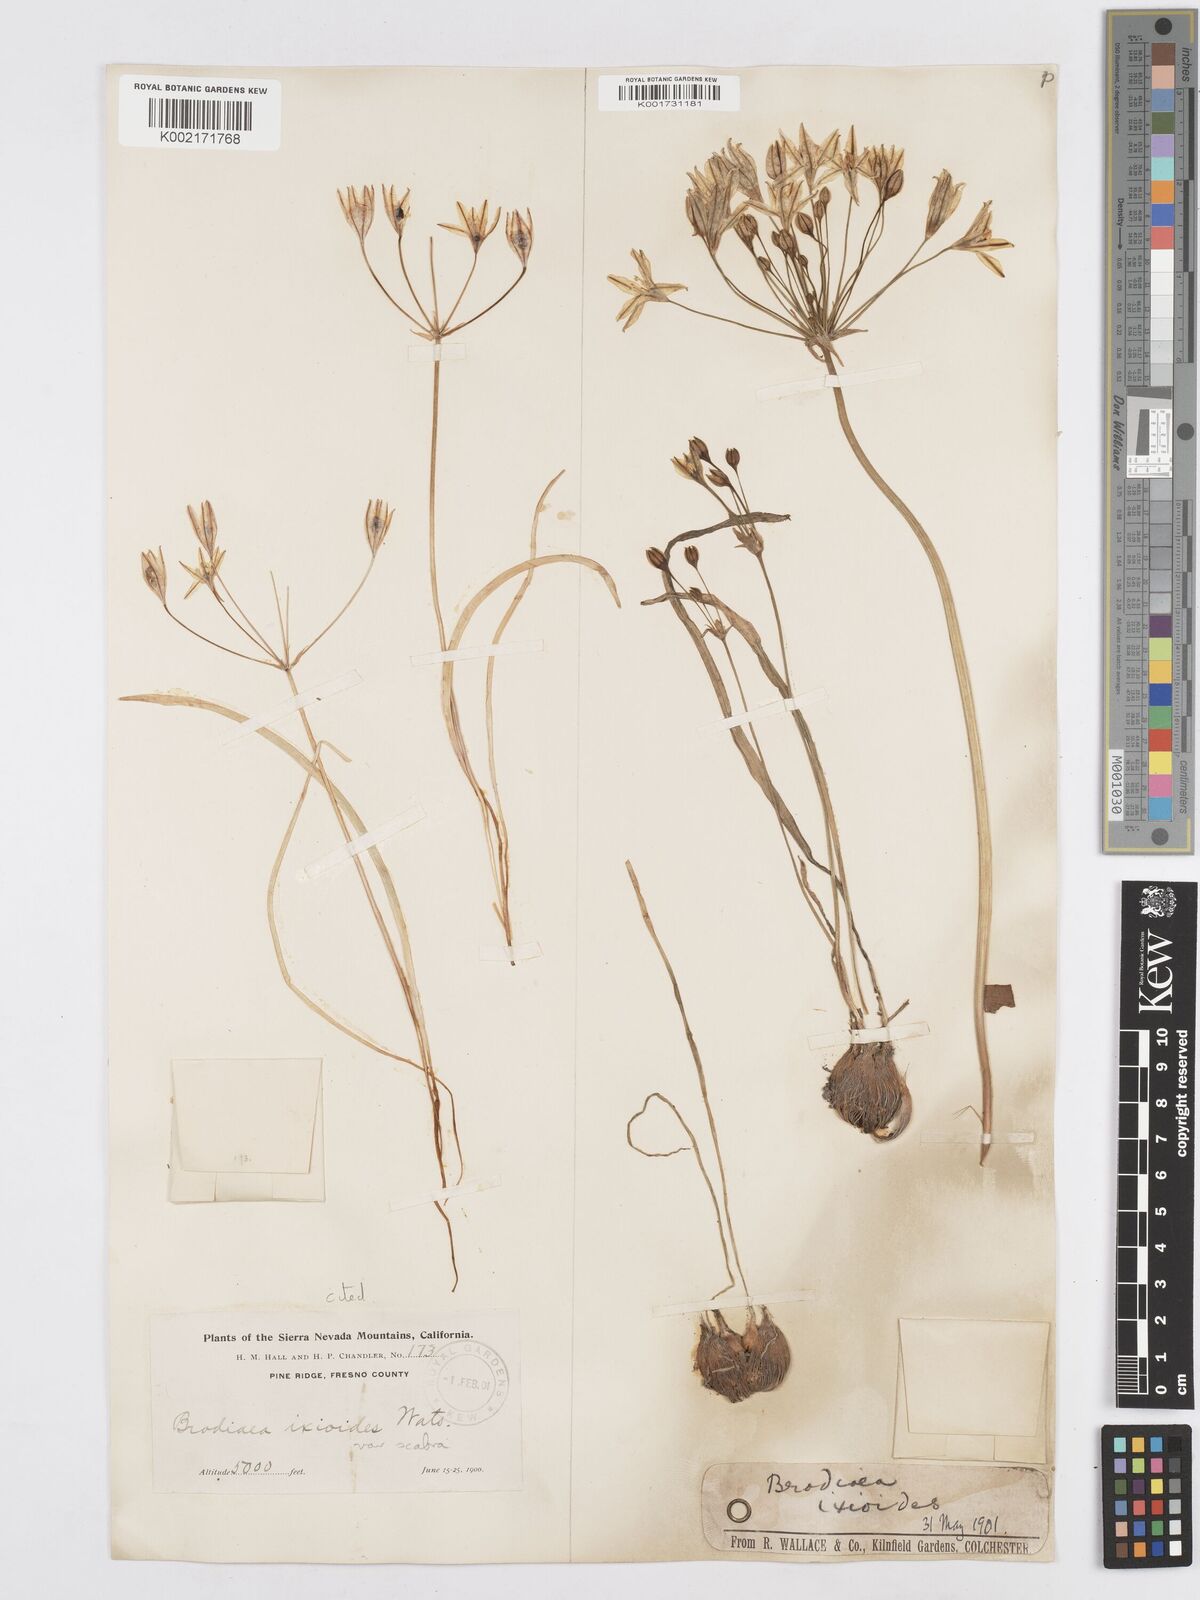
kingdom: Plantae
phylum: Tracheophyta
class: Liliopsida
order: Asparagales
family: Asparagaceae
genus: Triteleia
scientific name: Triteleia ixioides
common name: Yellow-brodiaea
